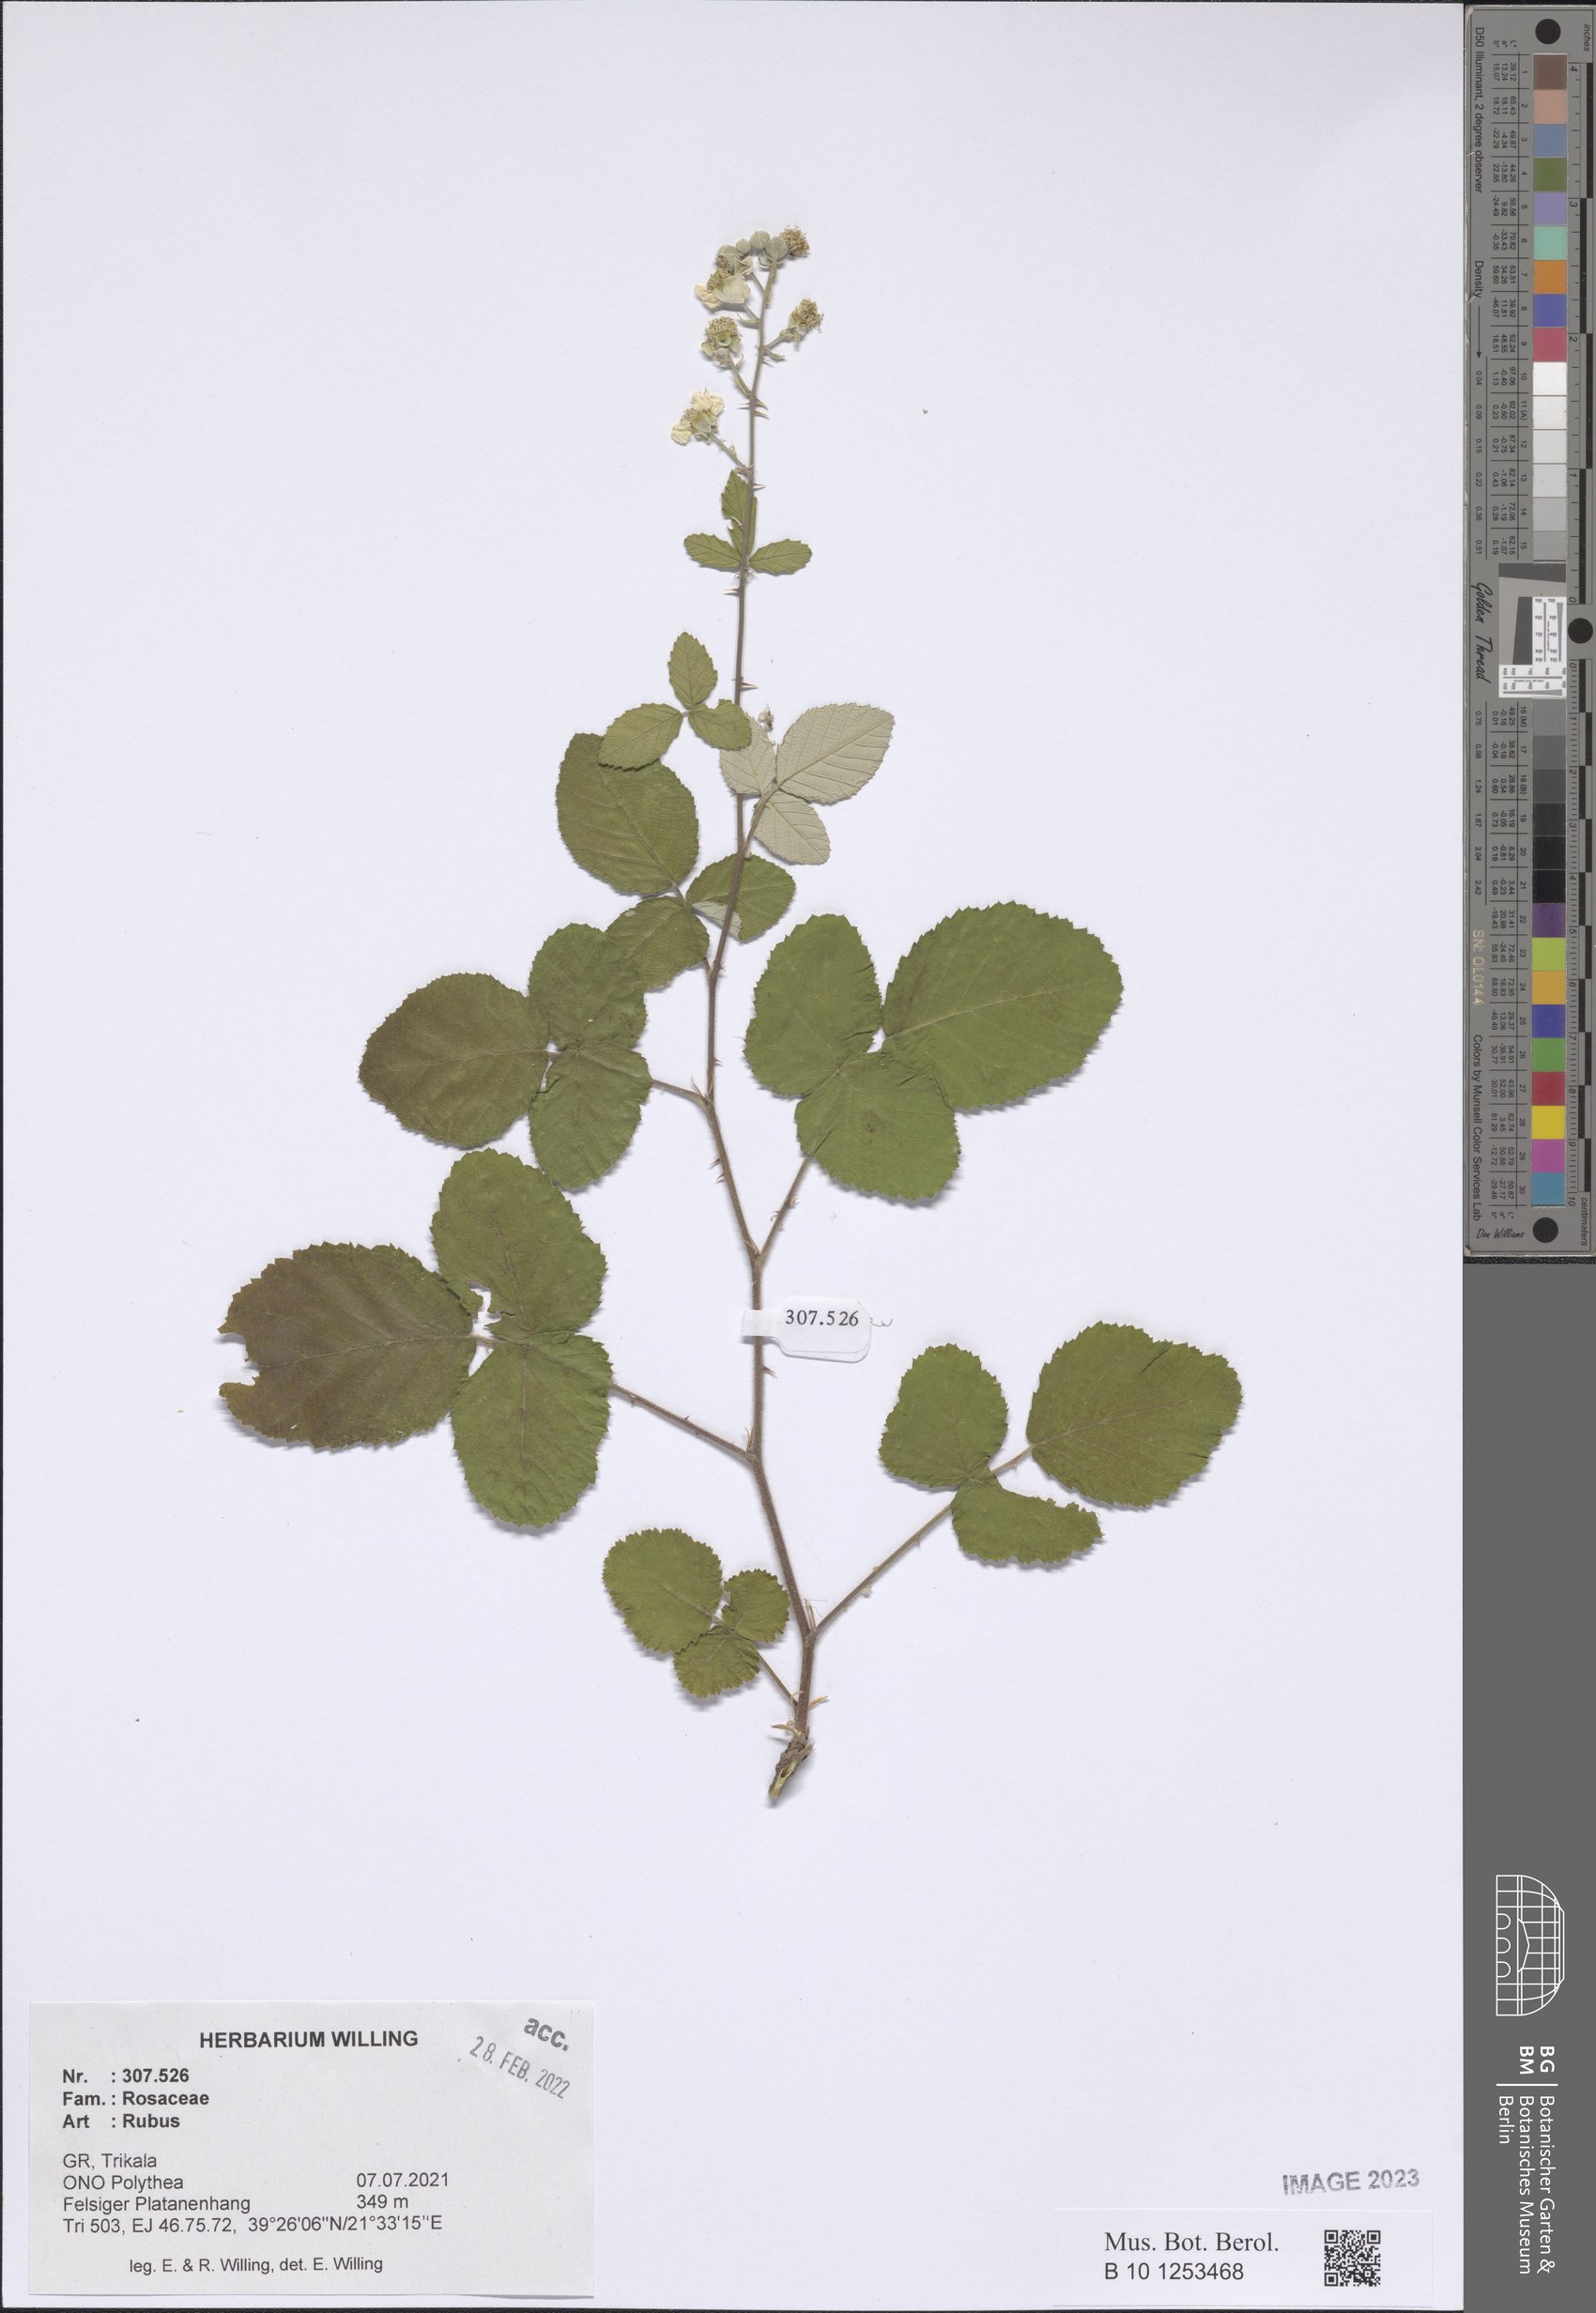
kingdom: Plantae
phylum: Tracheophyta
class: Magnoliopsida
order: Rosales
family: Rosaceae
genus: Rubus
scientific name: Rubus
